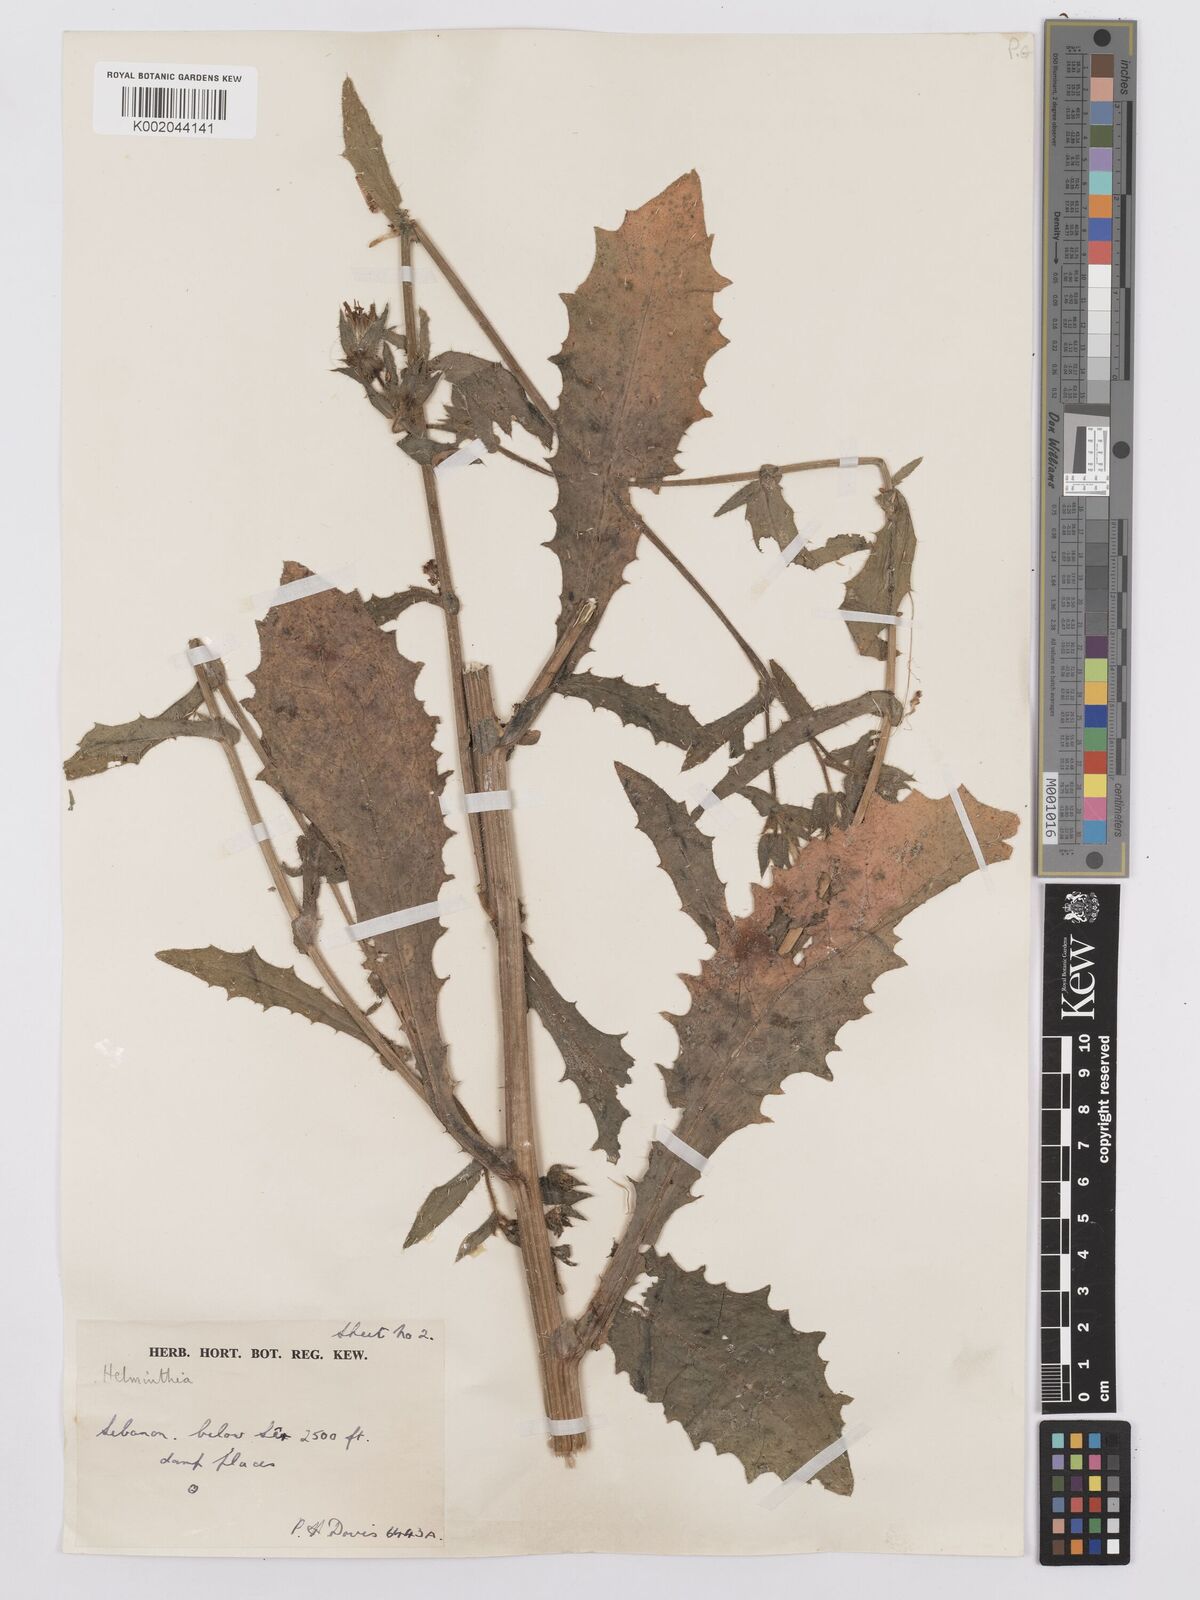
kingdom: Plantae
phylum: Tracheophyta
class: Magnoliopsida
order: Asterales
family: Asteraceae
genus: Picris
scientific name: Picris
